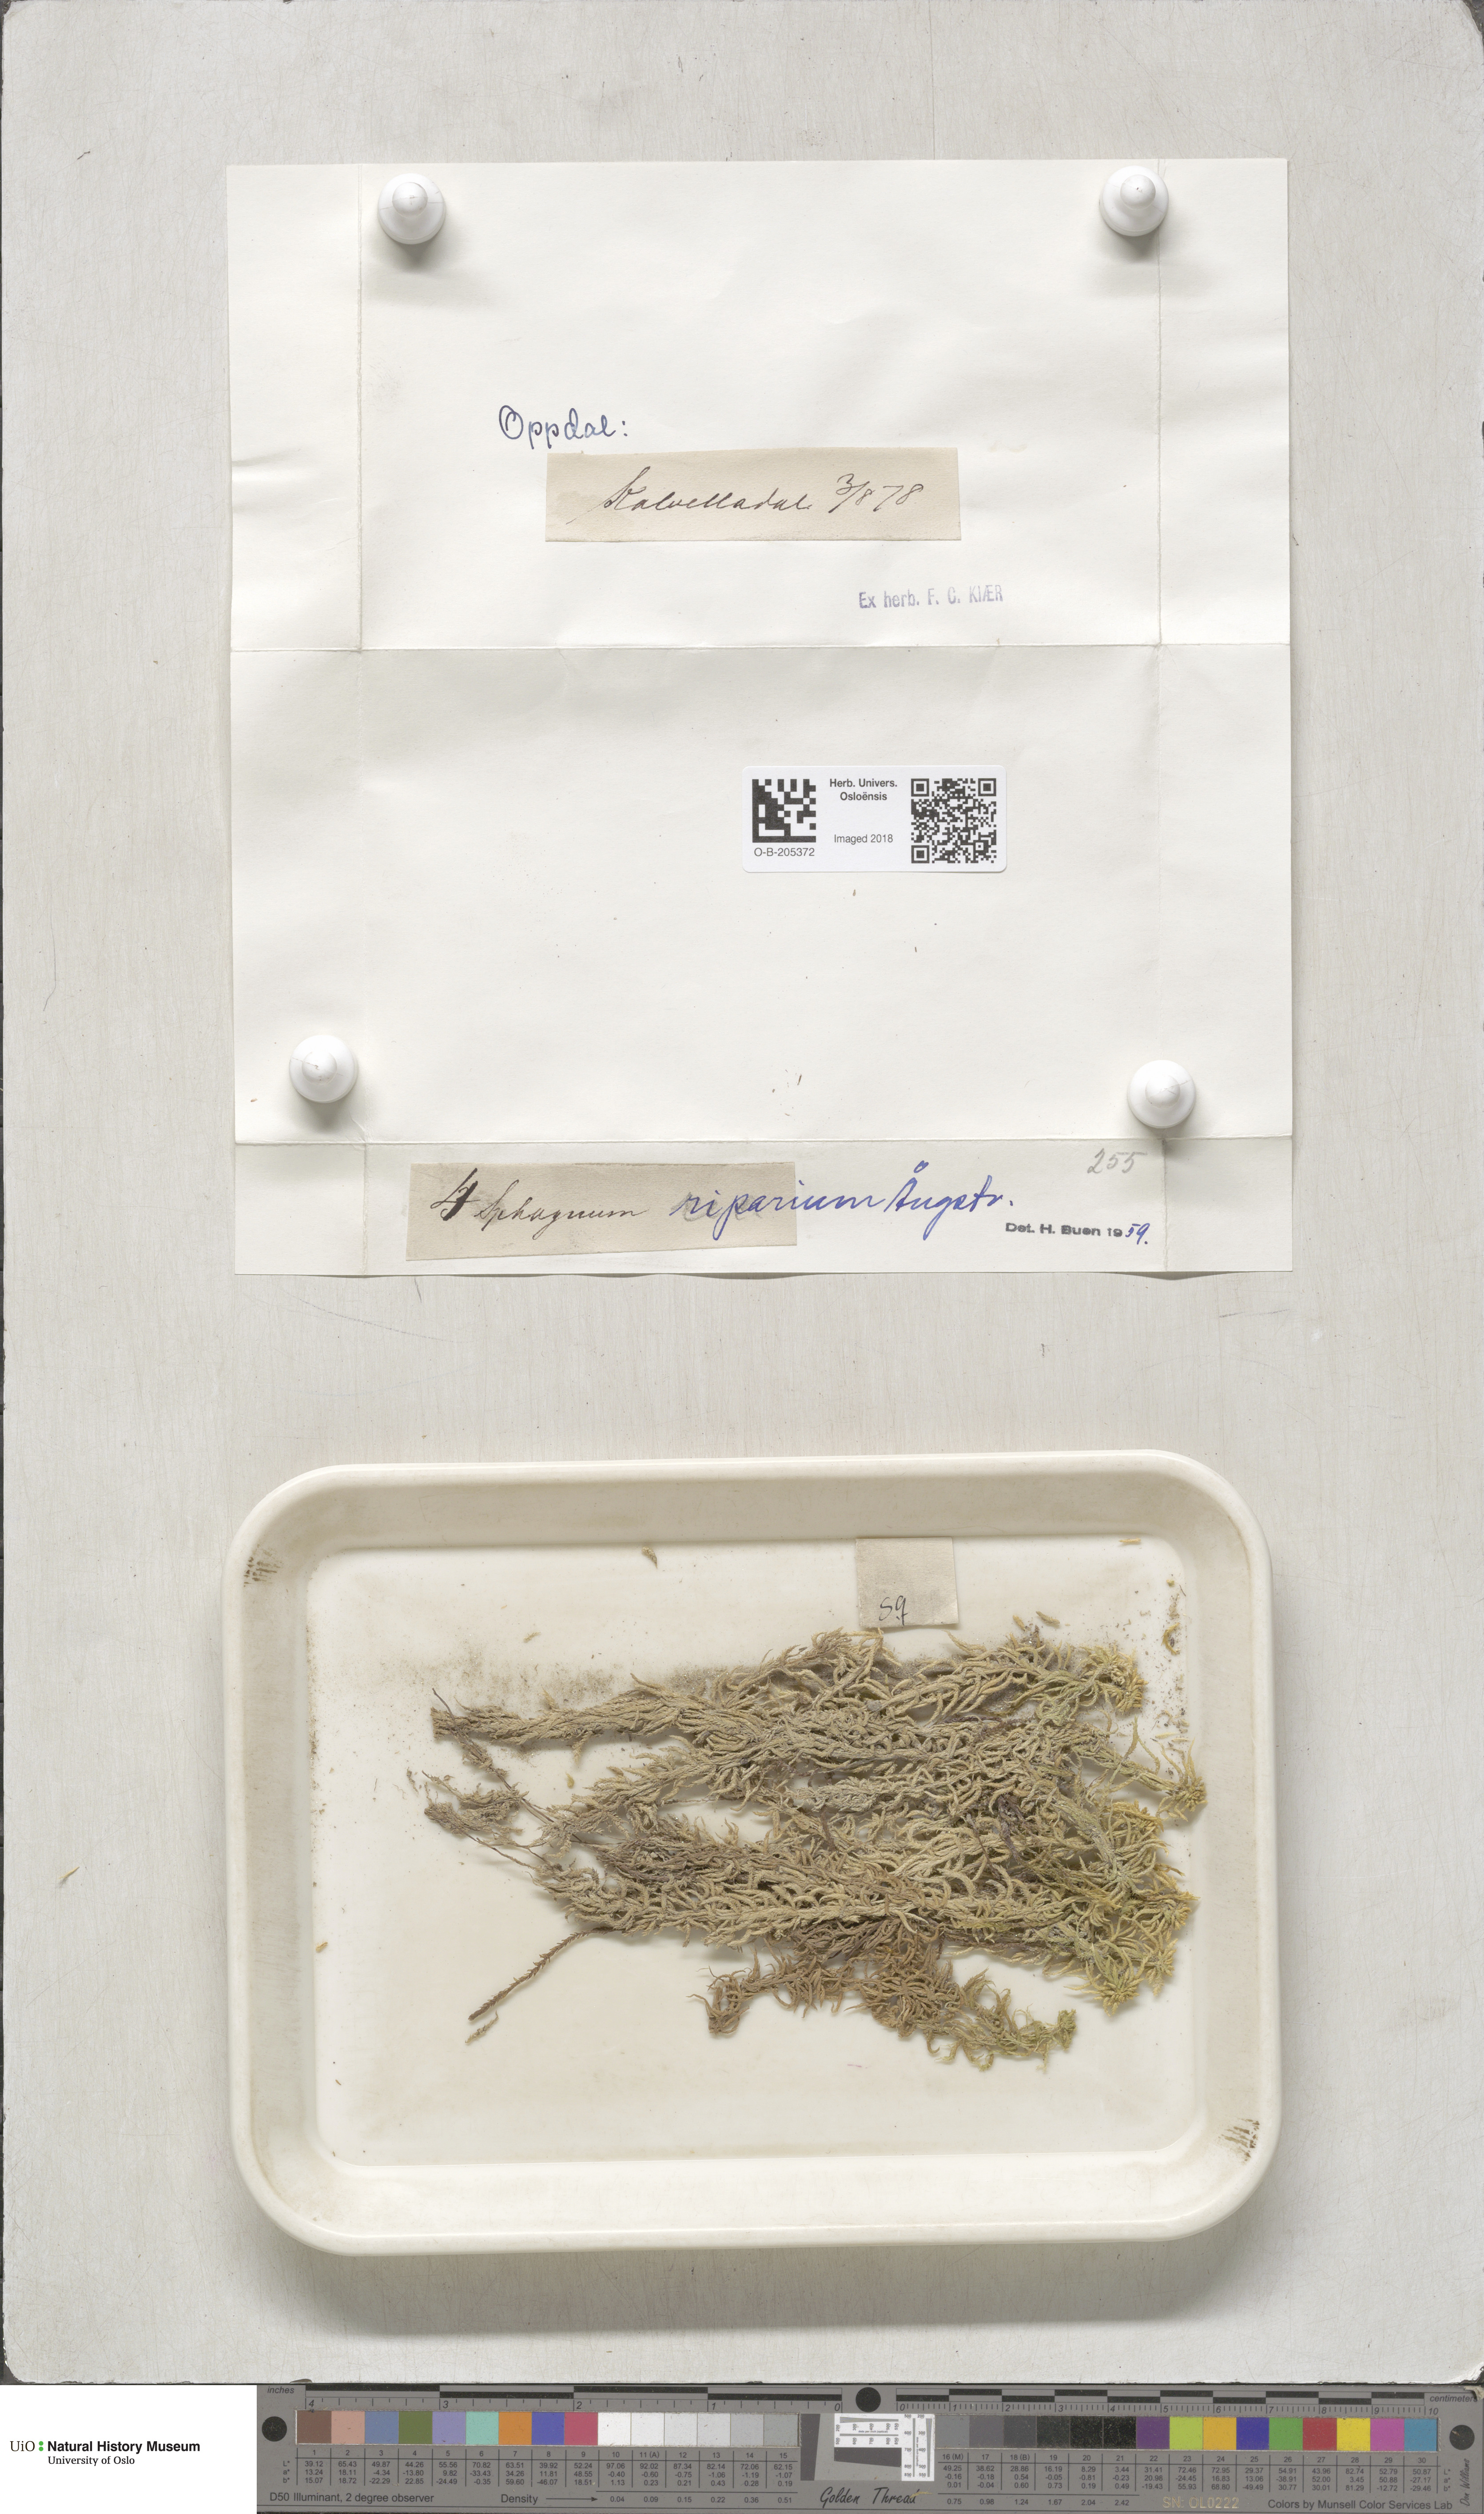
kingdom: Plantae
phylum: Bryophyta
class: Sphagnopsida
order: Sphagnales
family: Sphagnaceae
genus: Sphagnum
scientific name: Sphagnum riparium
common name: Streamside peat moss
